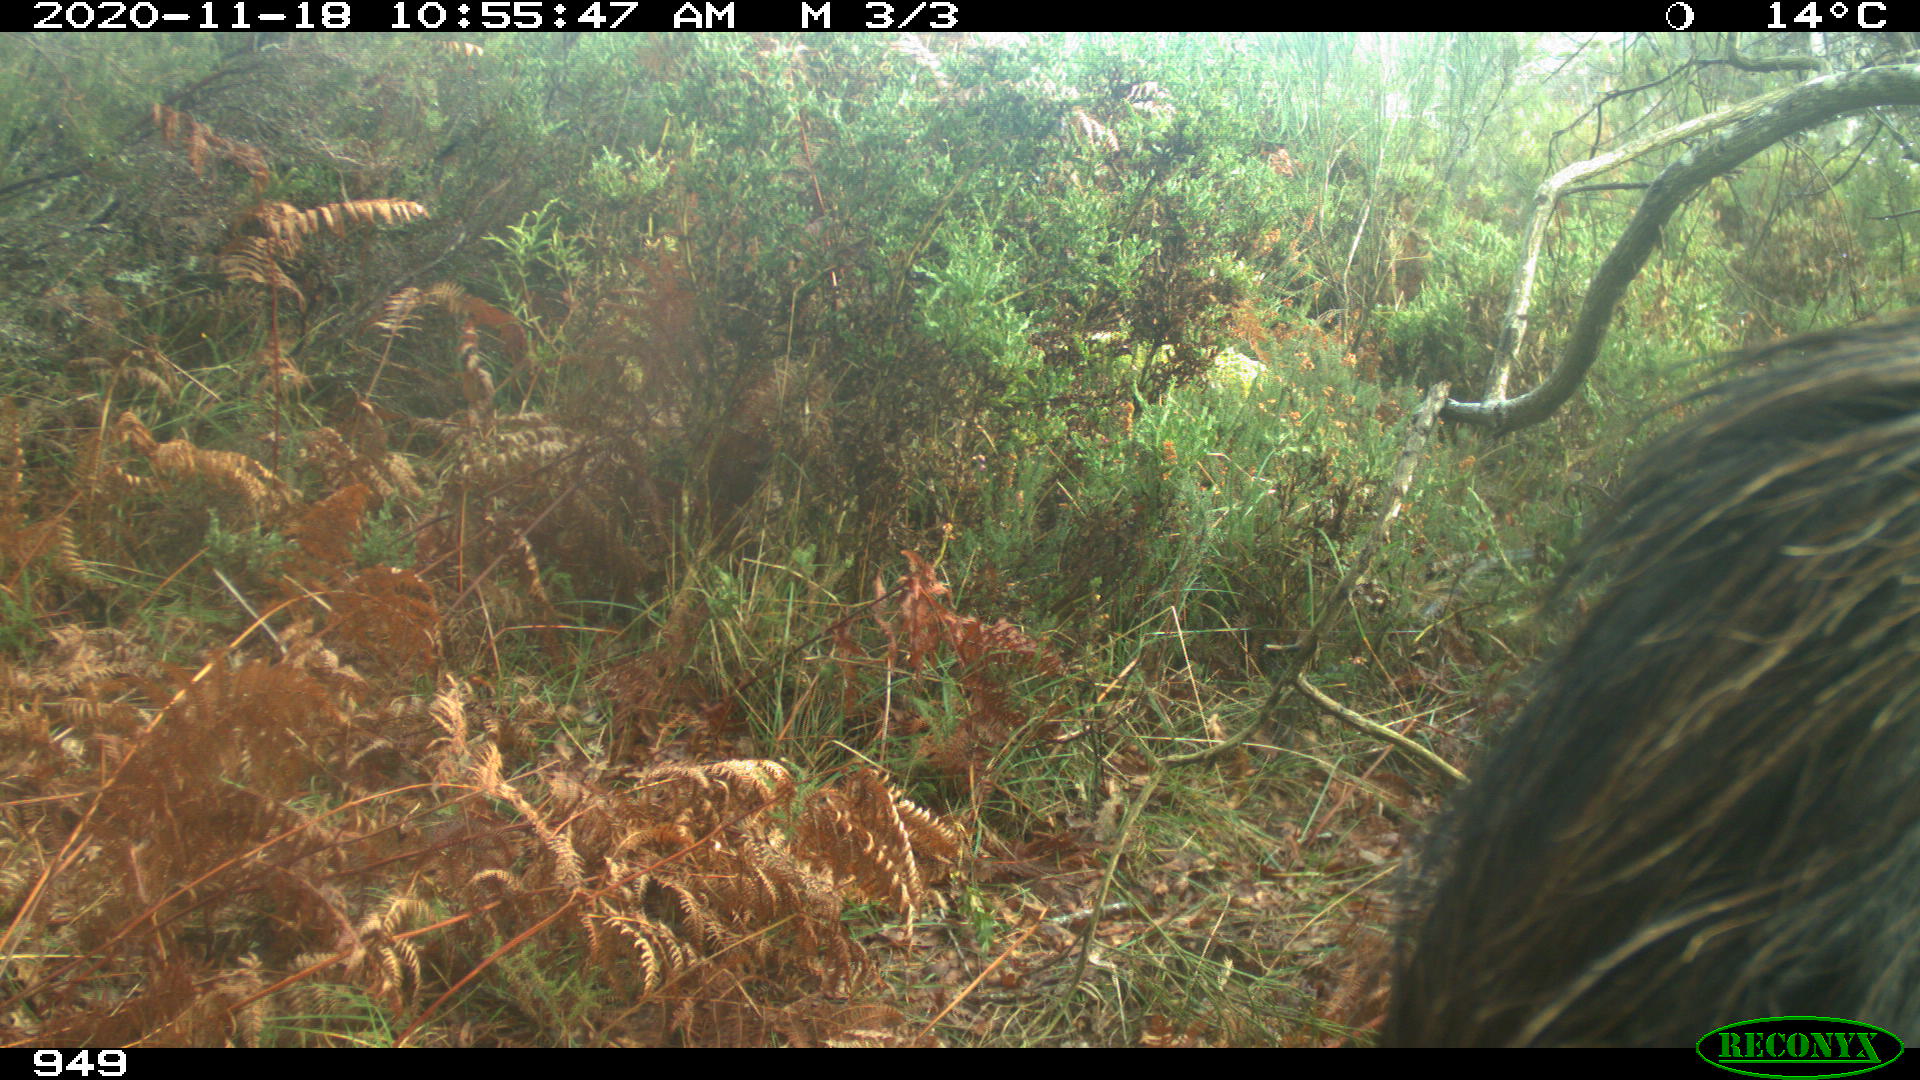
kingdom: Animalia
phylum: Chordata
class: Mammalia
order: Perissodactyla
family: Equidae
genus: Equus
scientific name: Equus caballus
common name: Horse
